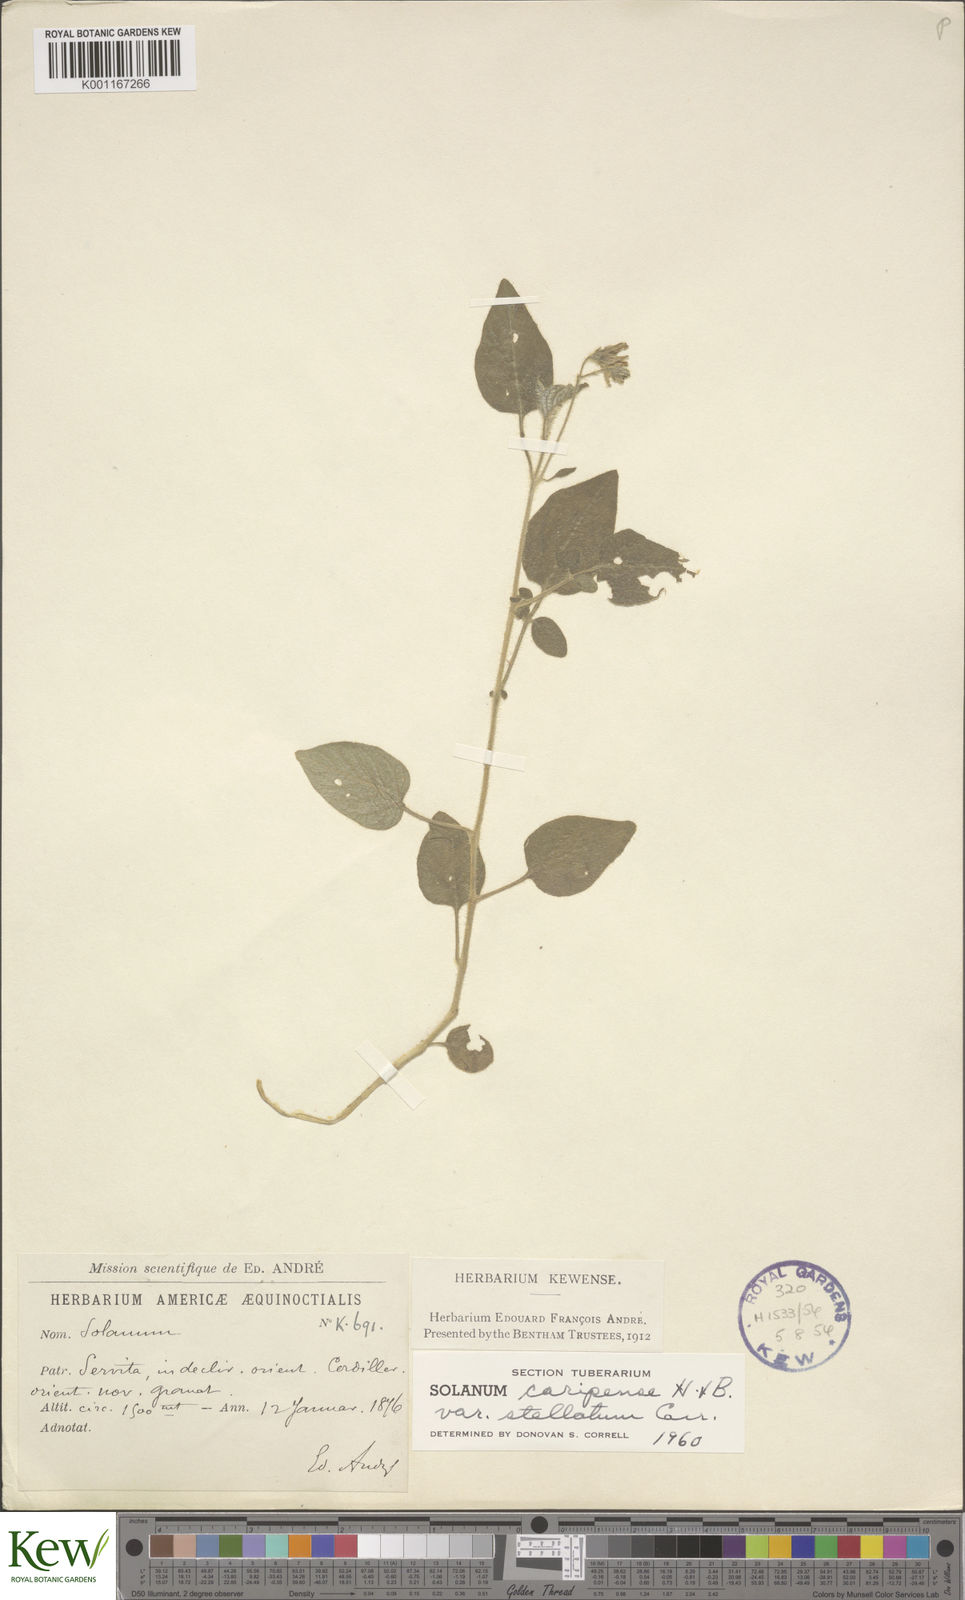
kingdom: Plantae
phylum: Tracheophyta
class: Magnoliopsida
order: Solanales
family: Solanaceae
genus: Solanum
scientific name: Solanum caripense
